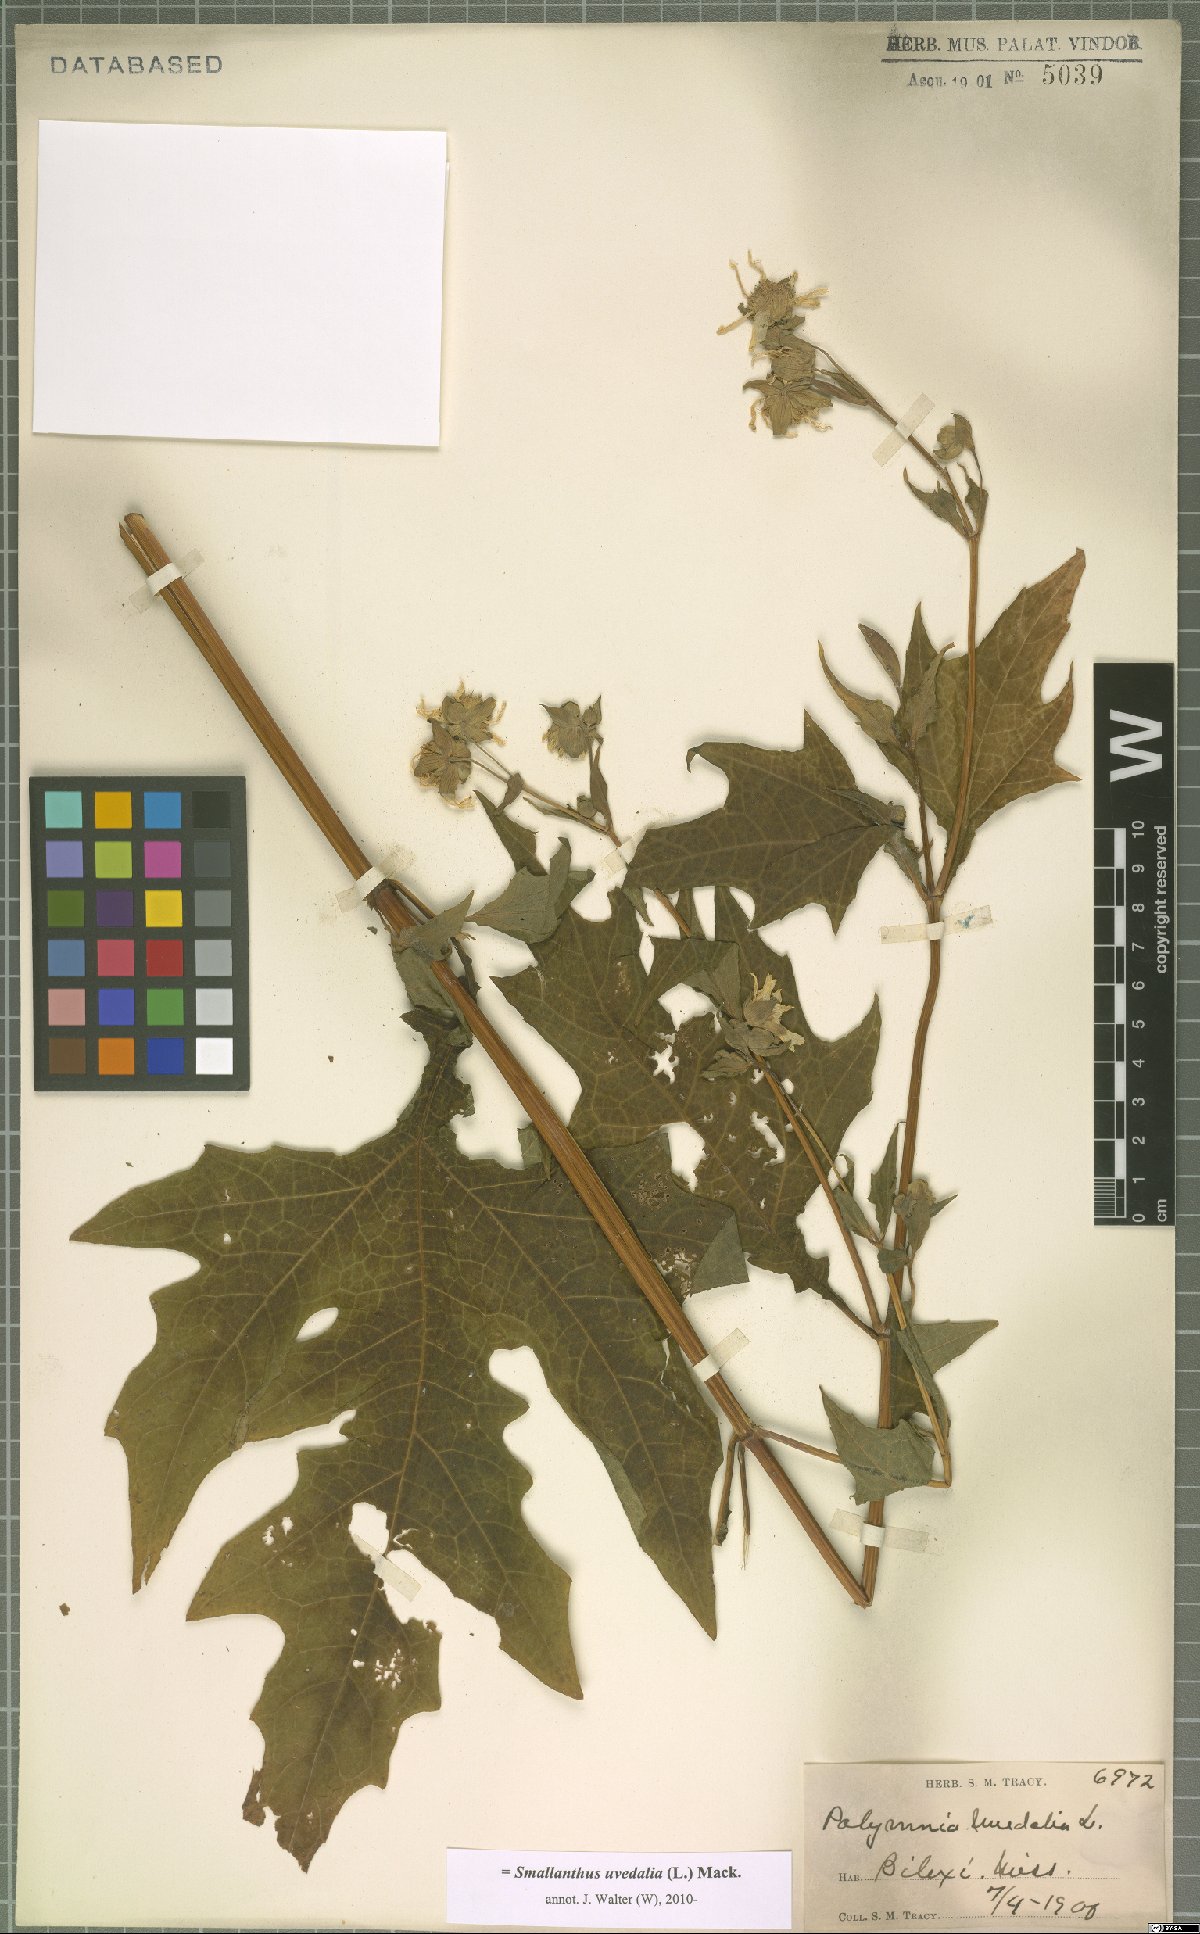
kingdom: Plantae
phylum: Tracheophyta
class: Magnoliopsida
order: Asterales
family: Asteraceae
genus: Smallanthus
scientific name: Smallanthus uvedalia
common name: Bear's-foot
